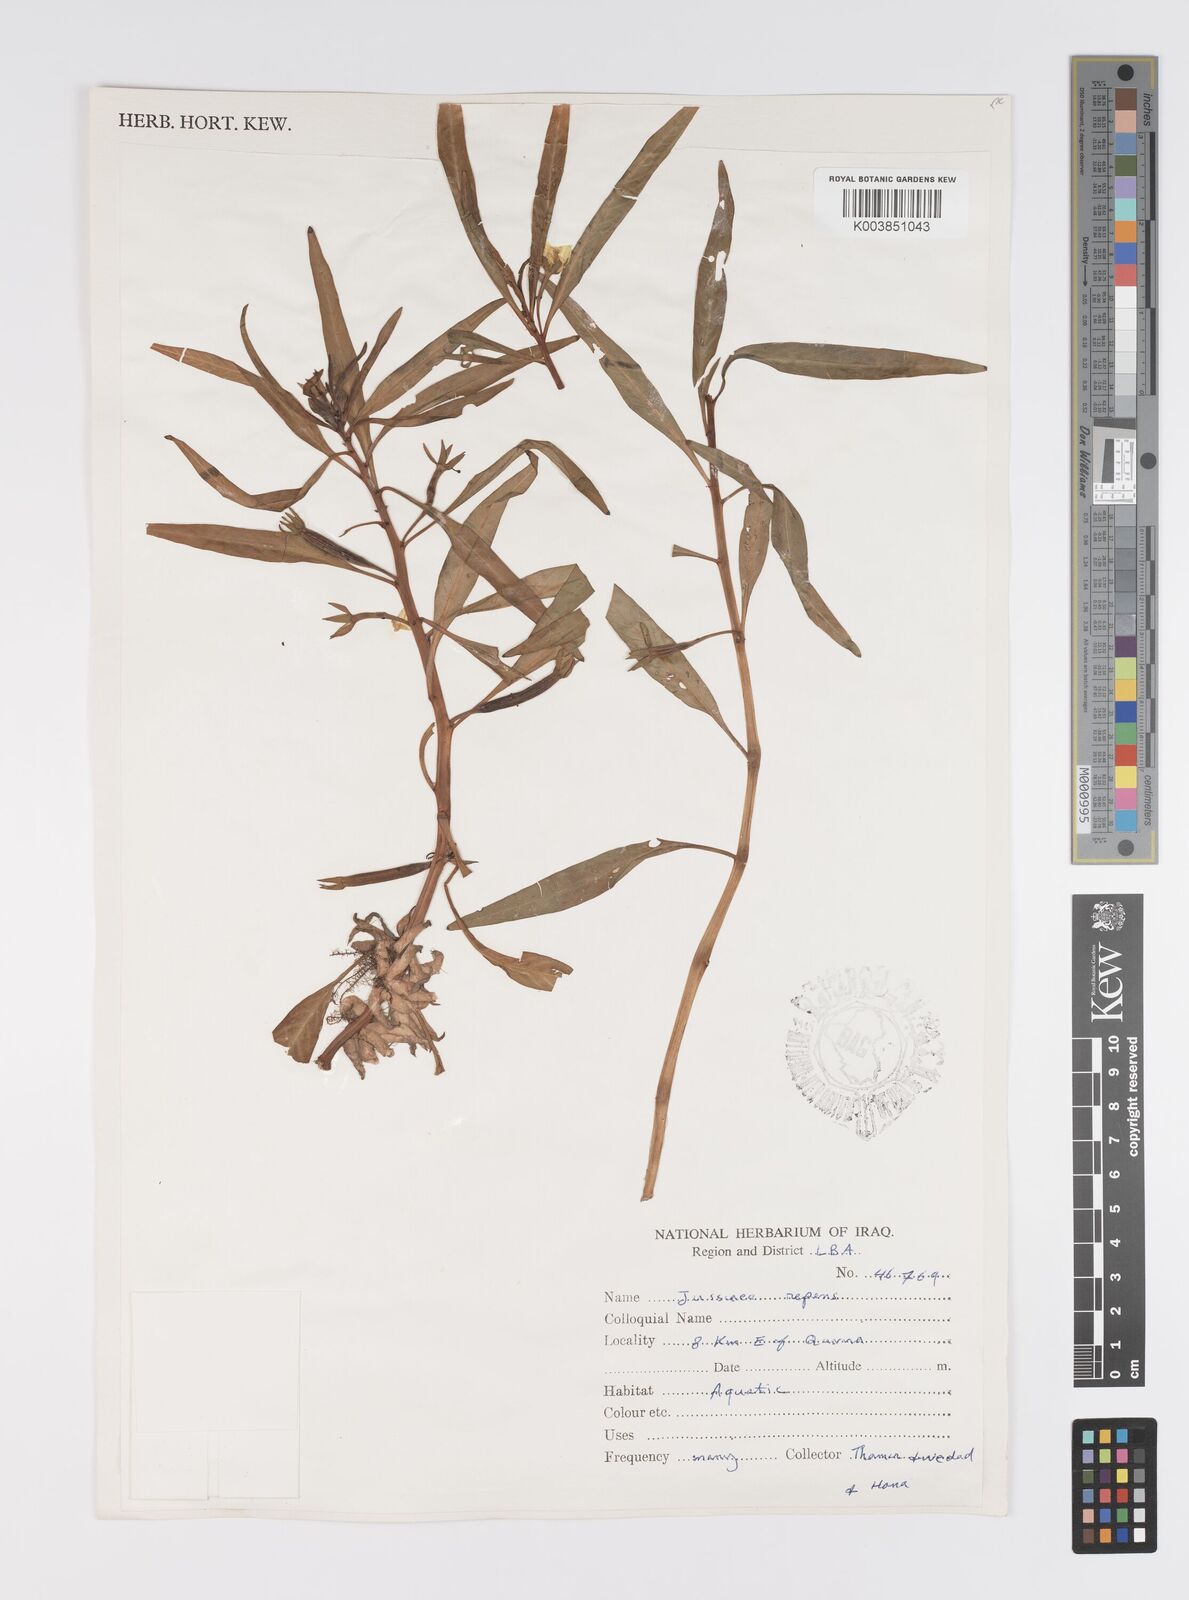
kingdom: Plantae
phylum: Tracheophyta
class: Magnoliopsida
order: Myrtales
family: Onagraceae
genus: Ludwigia
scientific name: Ludwigia adscendens
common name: Creeping water primrose
